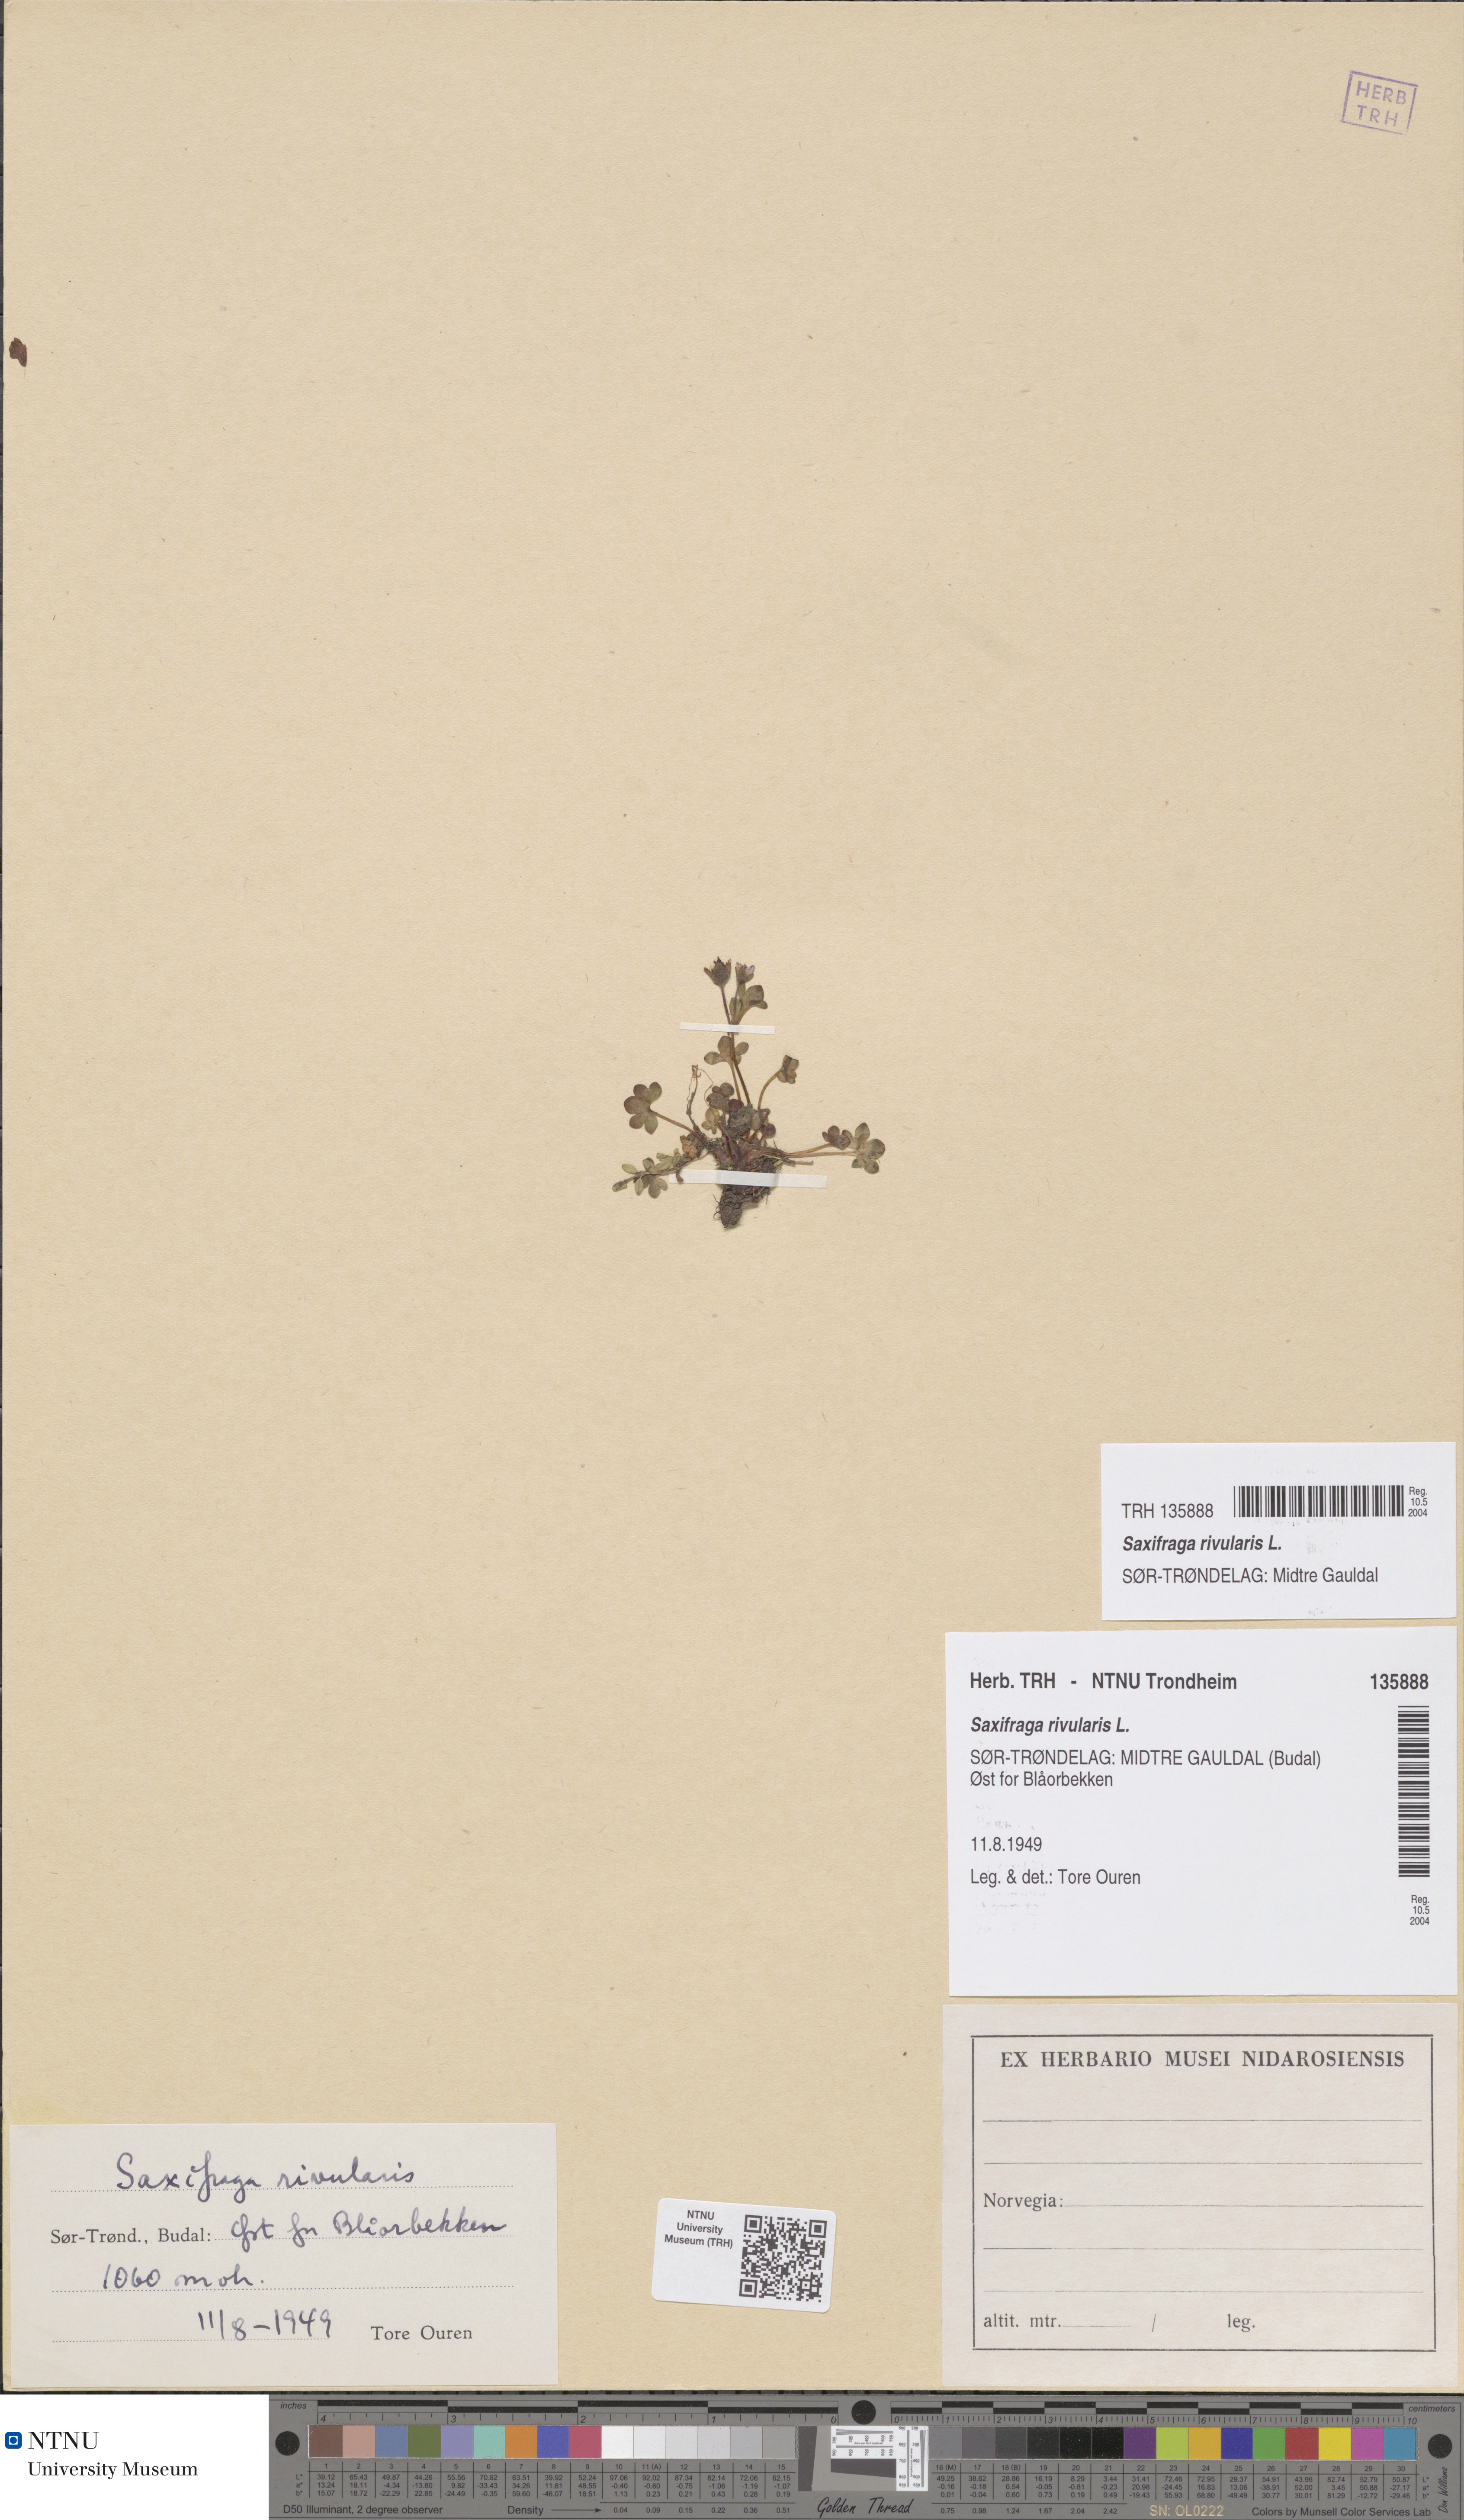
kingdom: Plantae
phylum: Tracheophyta
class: Magnoliopsida
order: Saxifragales
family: Saxifragaceae
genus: Saxifraga
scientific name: Saxifraga rivularis
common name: Highland saxifrage
